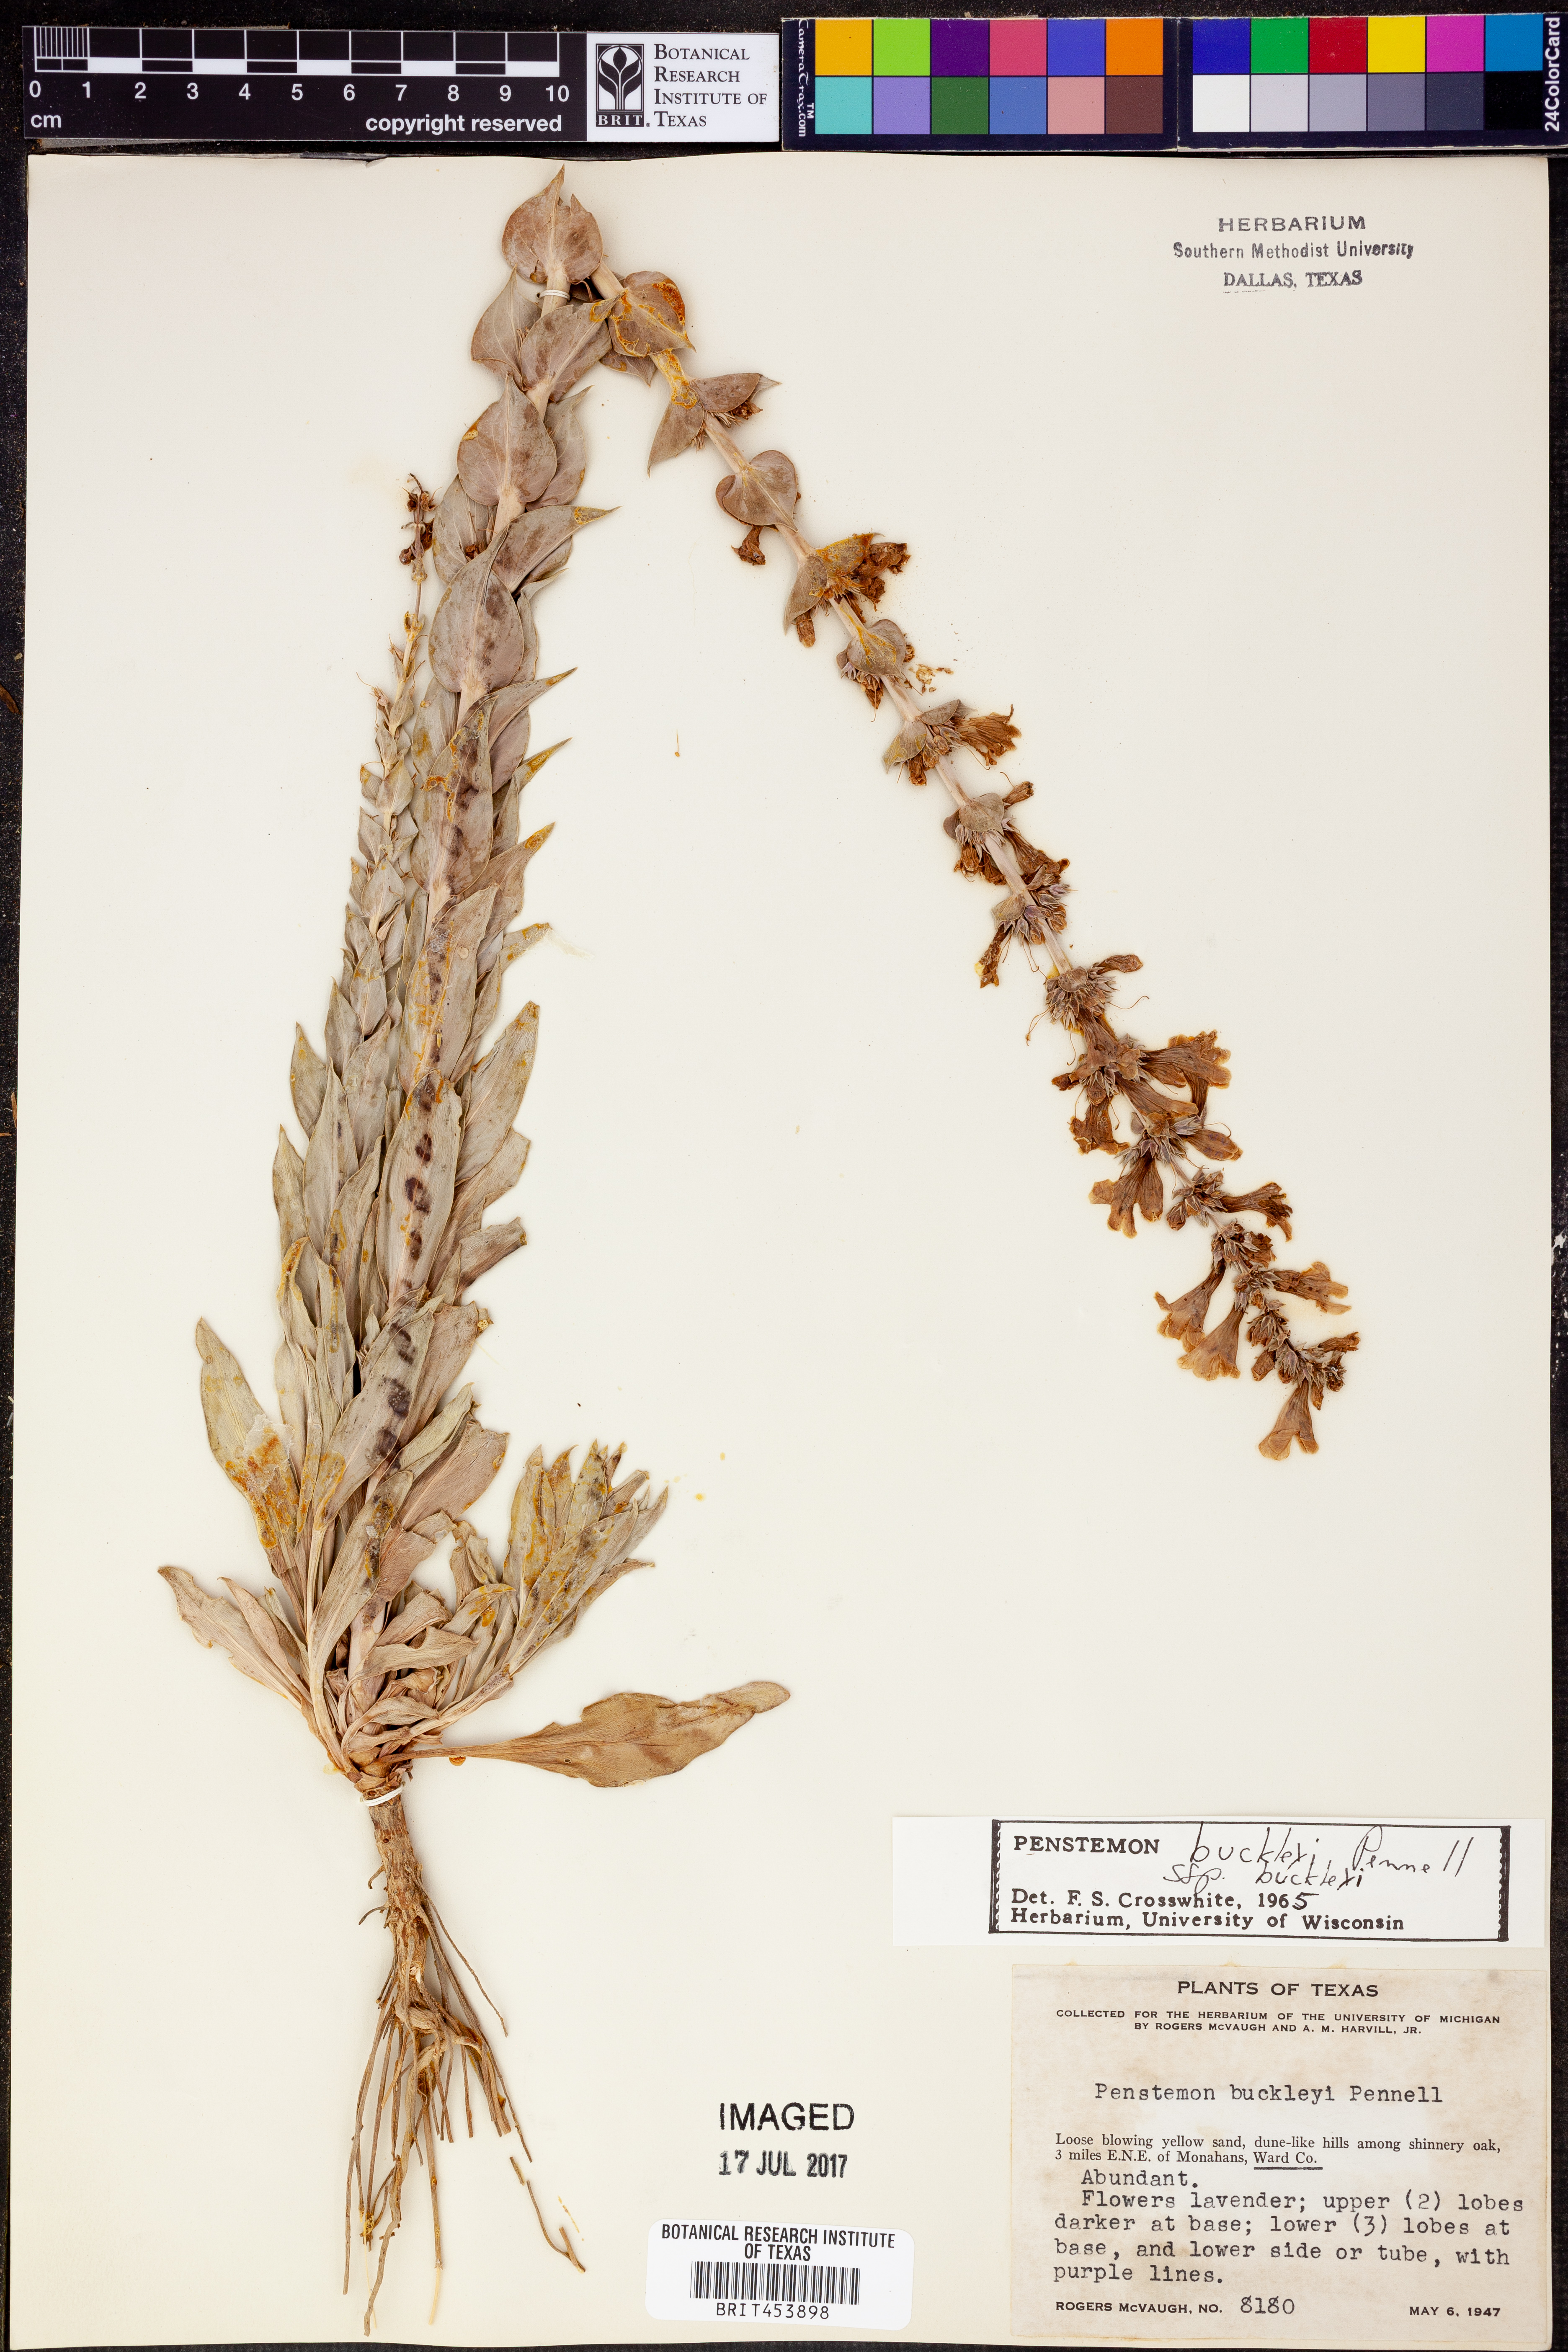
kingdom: Plantae
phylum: Tracheophyta
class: Magnoliopsida
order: Lamiales
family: Plantaginaceae
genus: Penstemon
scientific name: Penstemon buckleyi
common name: Buckley's penstemon
